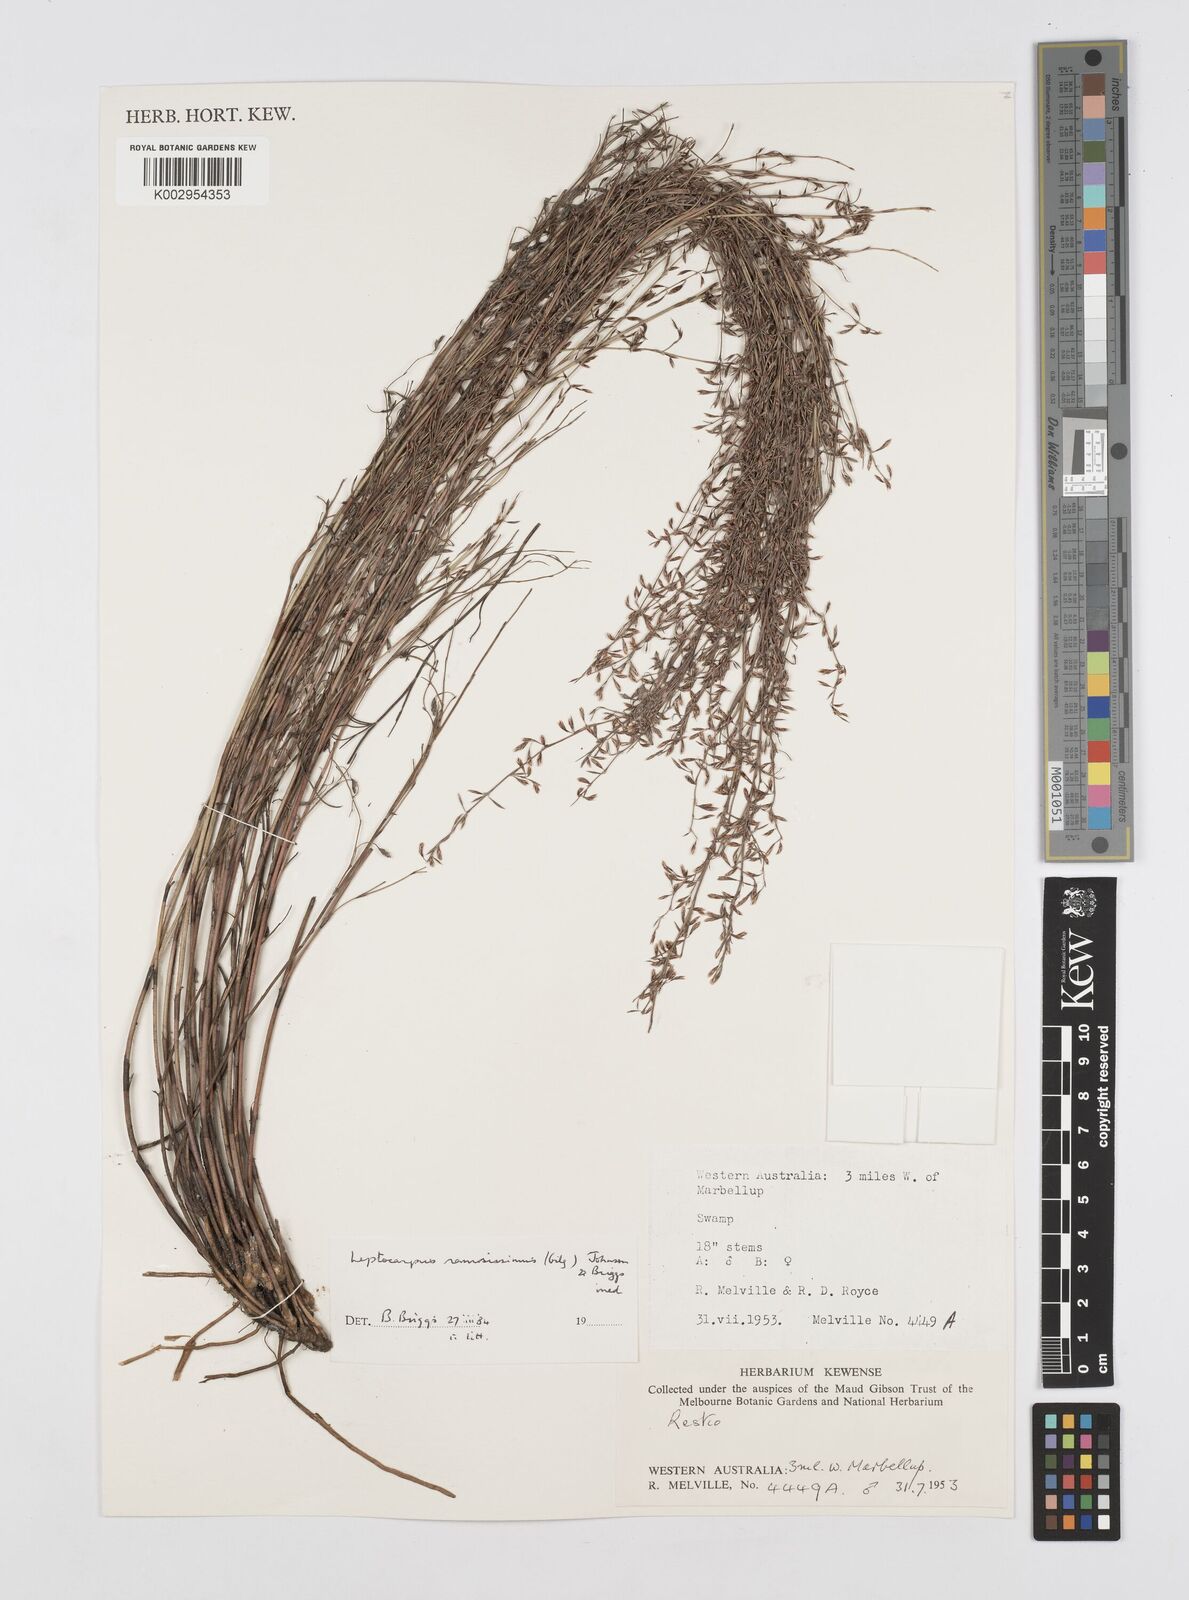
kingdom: Plantae
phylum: Tracheophyta
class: Liliopsida
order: Poales
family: Restionaceae
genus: Leptocarpus
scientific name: Leptocarpus
